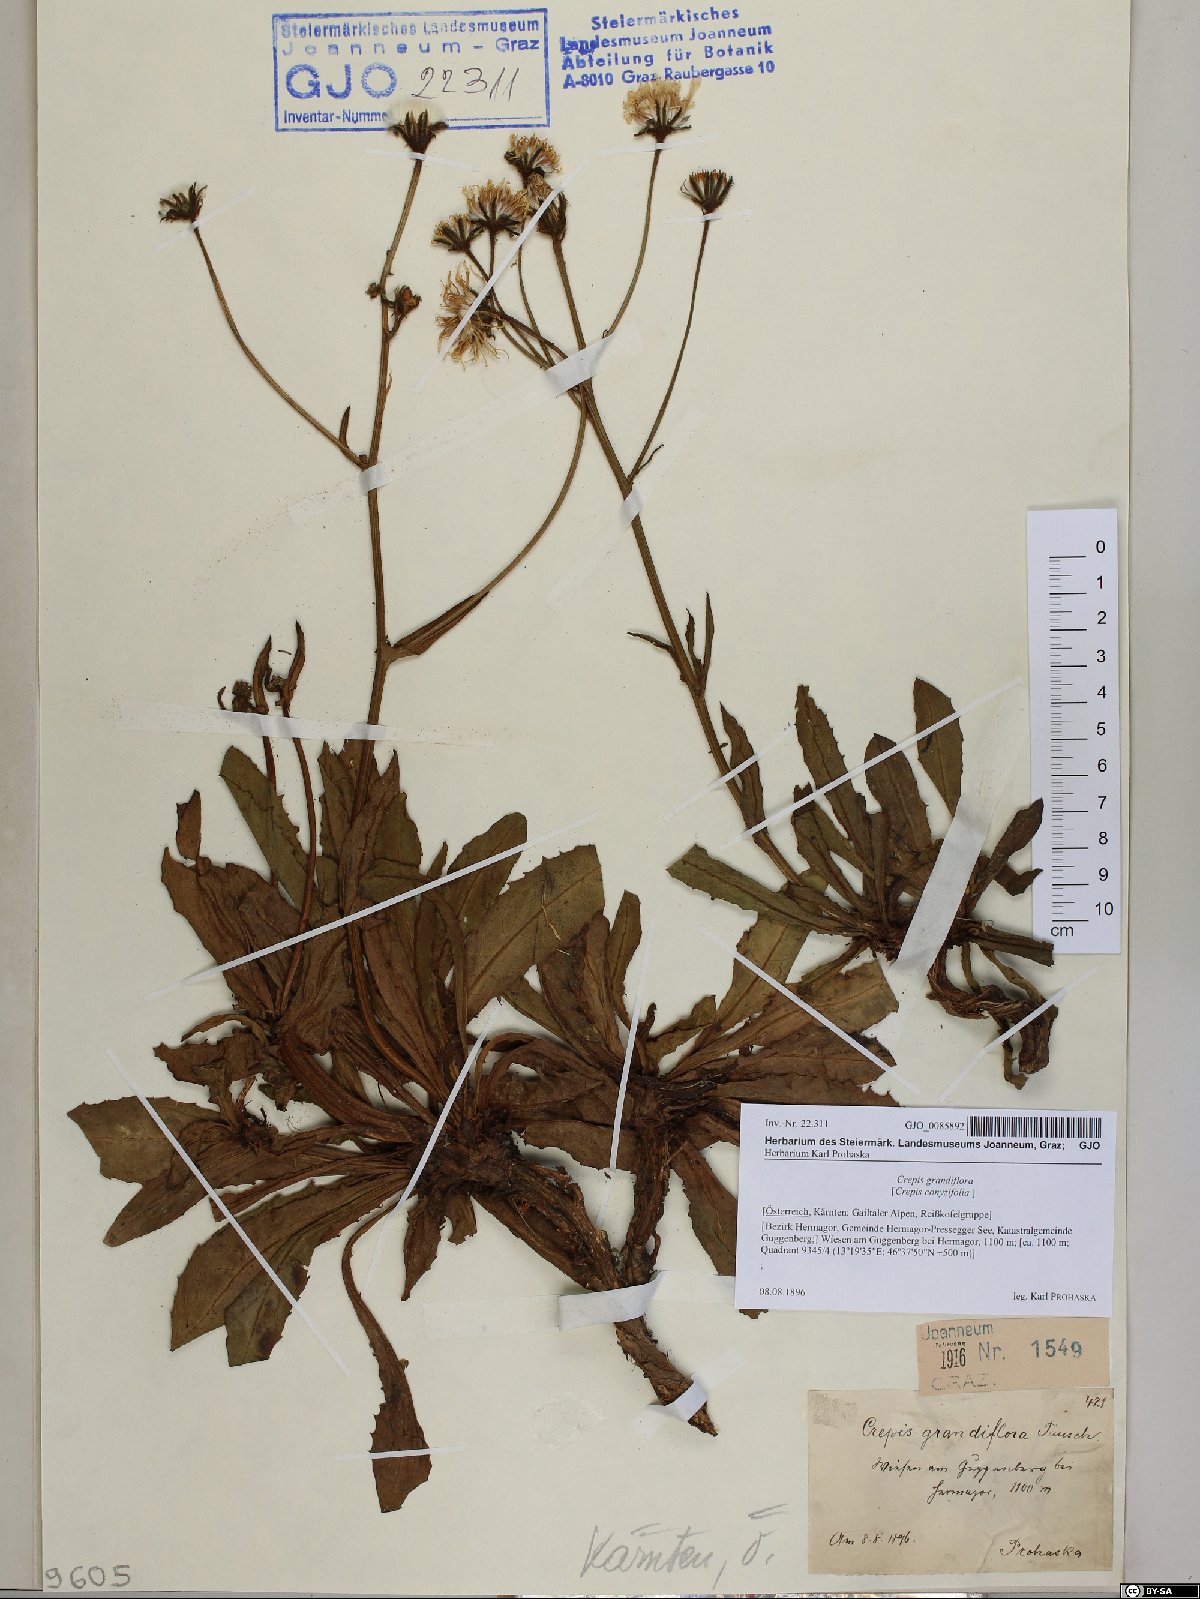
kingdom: Plantae
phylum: Tracheophyta
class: Magnoliopsida
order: Asterales
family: Asteraceae
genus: Crepis
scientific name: Crepis pyrenaica
